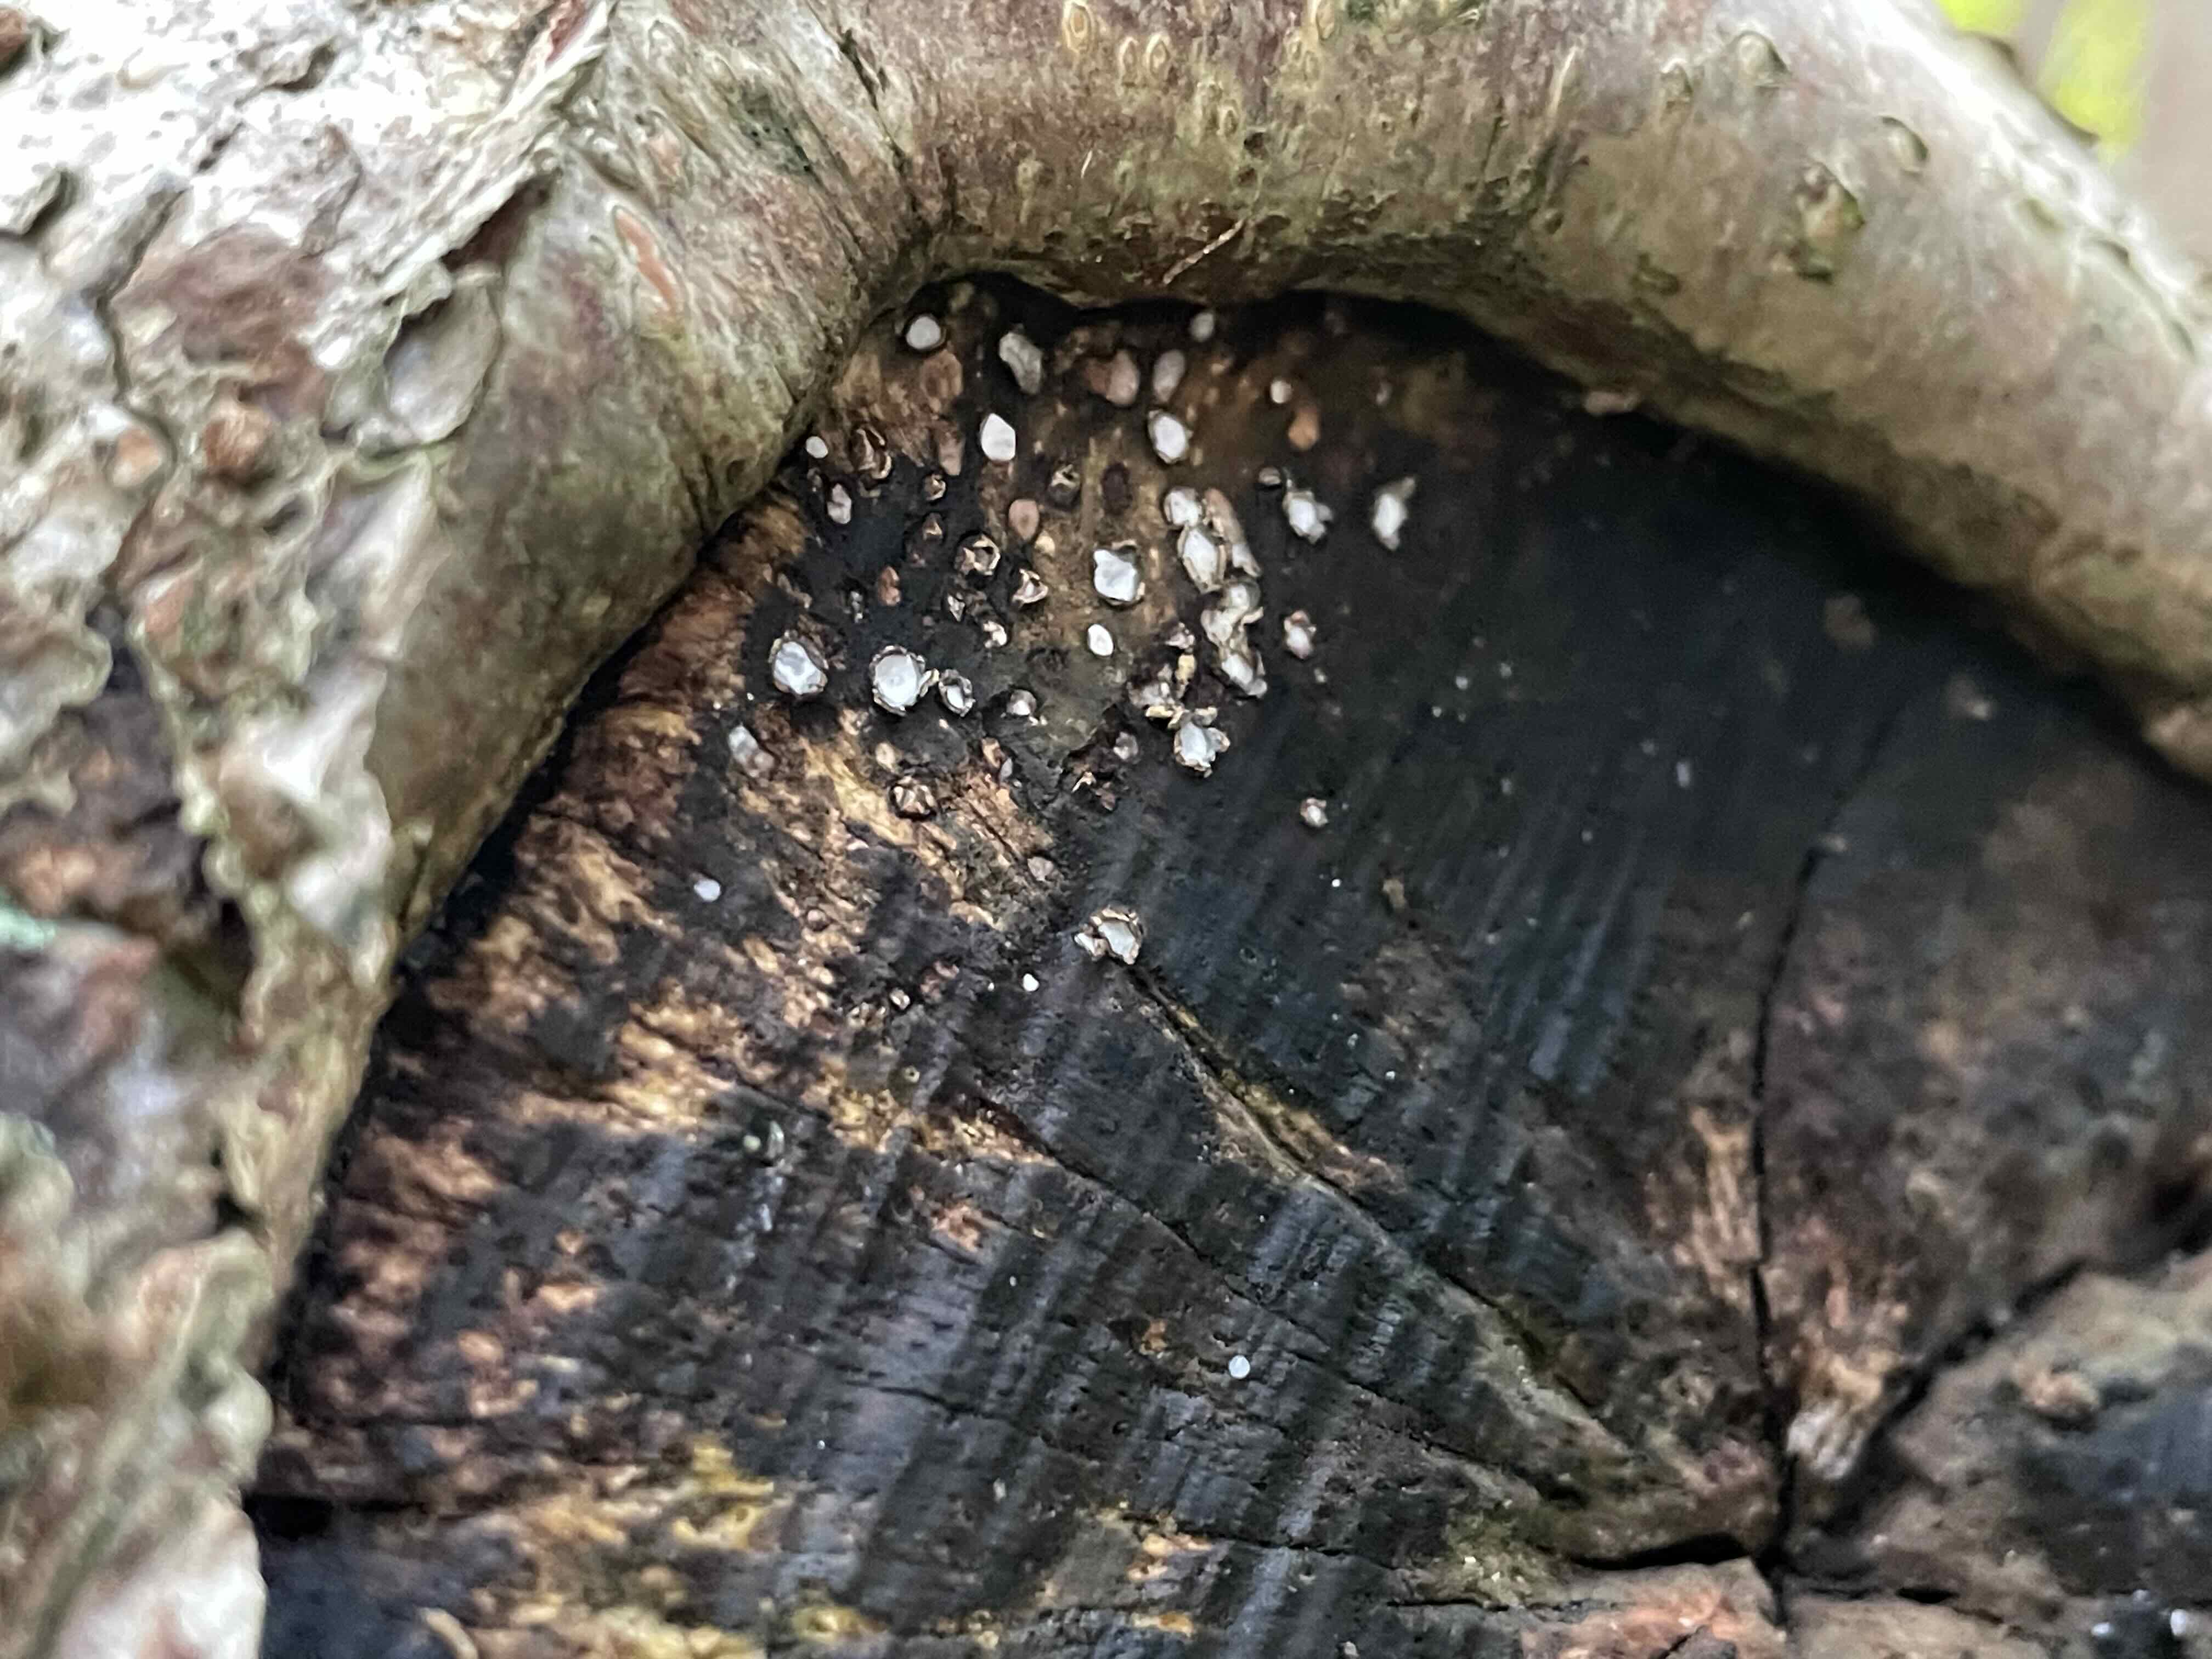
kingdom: Fungi
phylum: Ascomycota
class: Leotiomycetes
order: Chaetomellales
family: Marthamycetaceae
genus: Propolis
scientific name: Propolis farinosa
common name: almindelig vedsprængerskive
